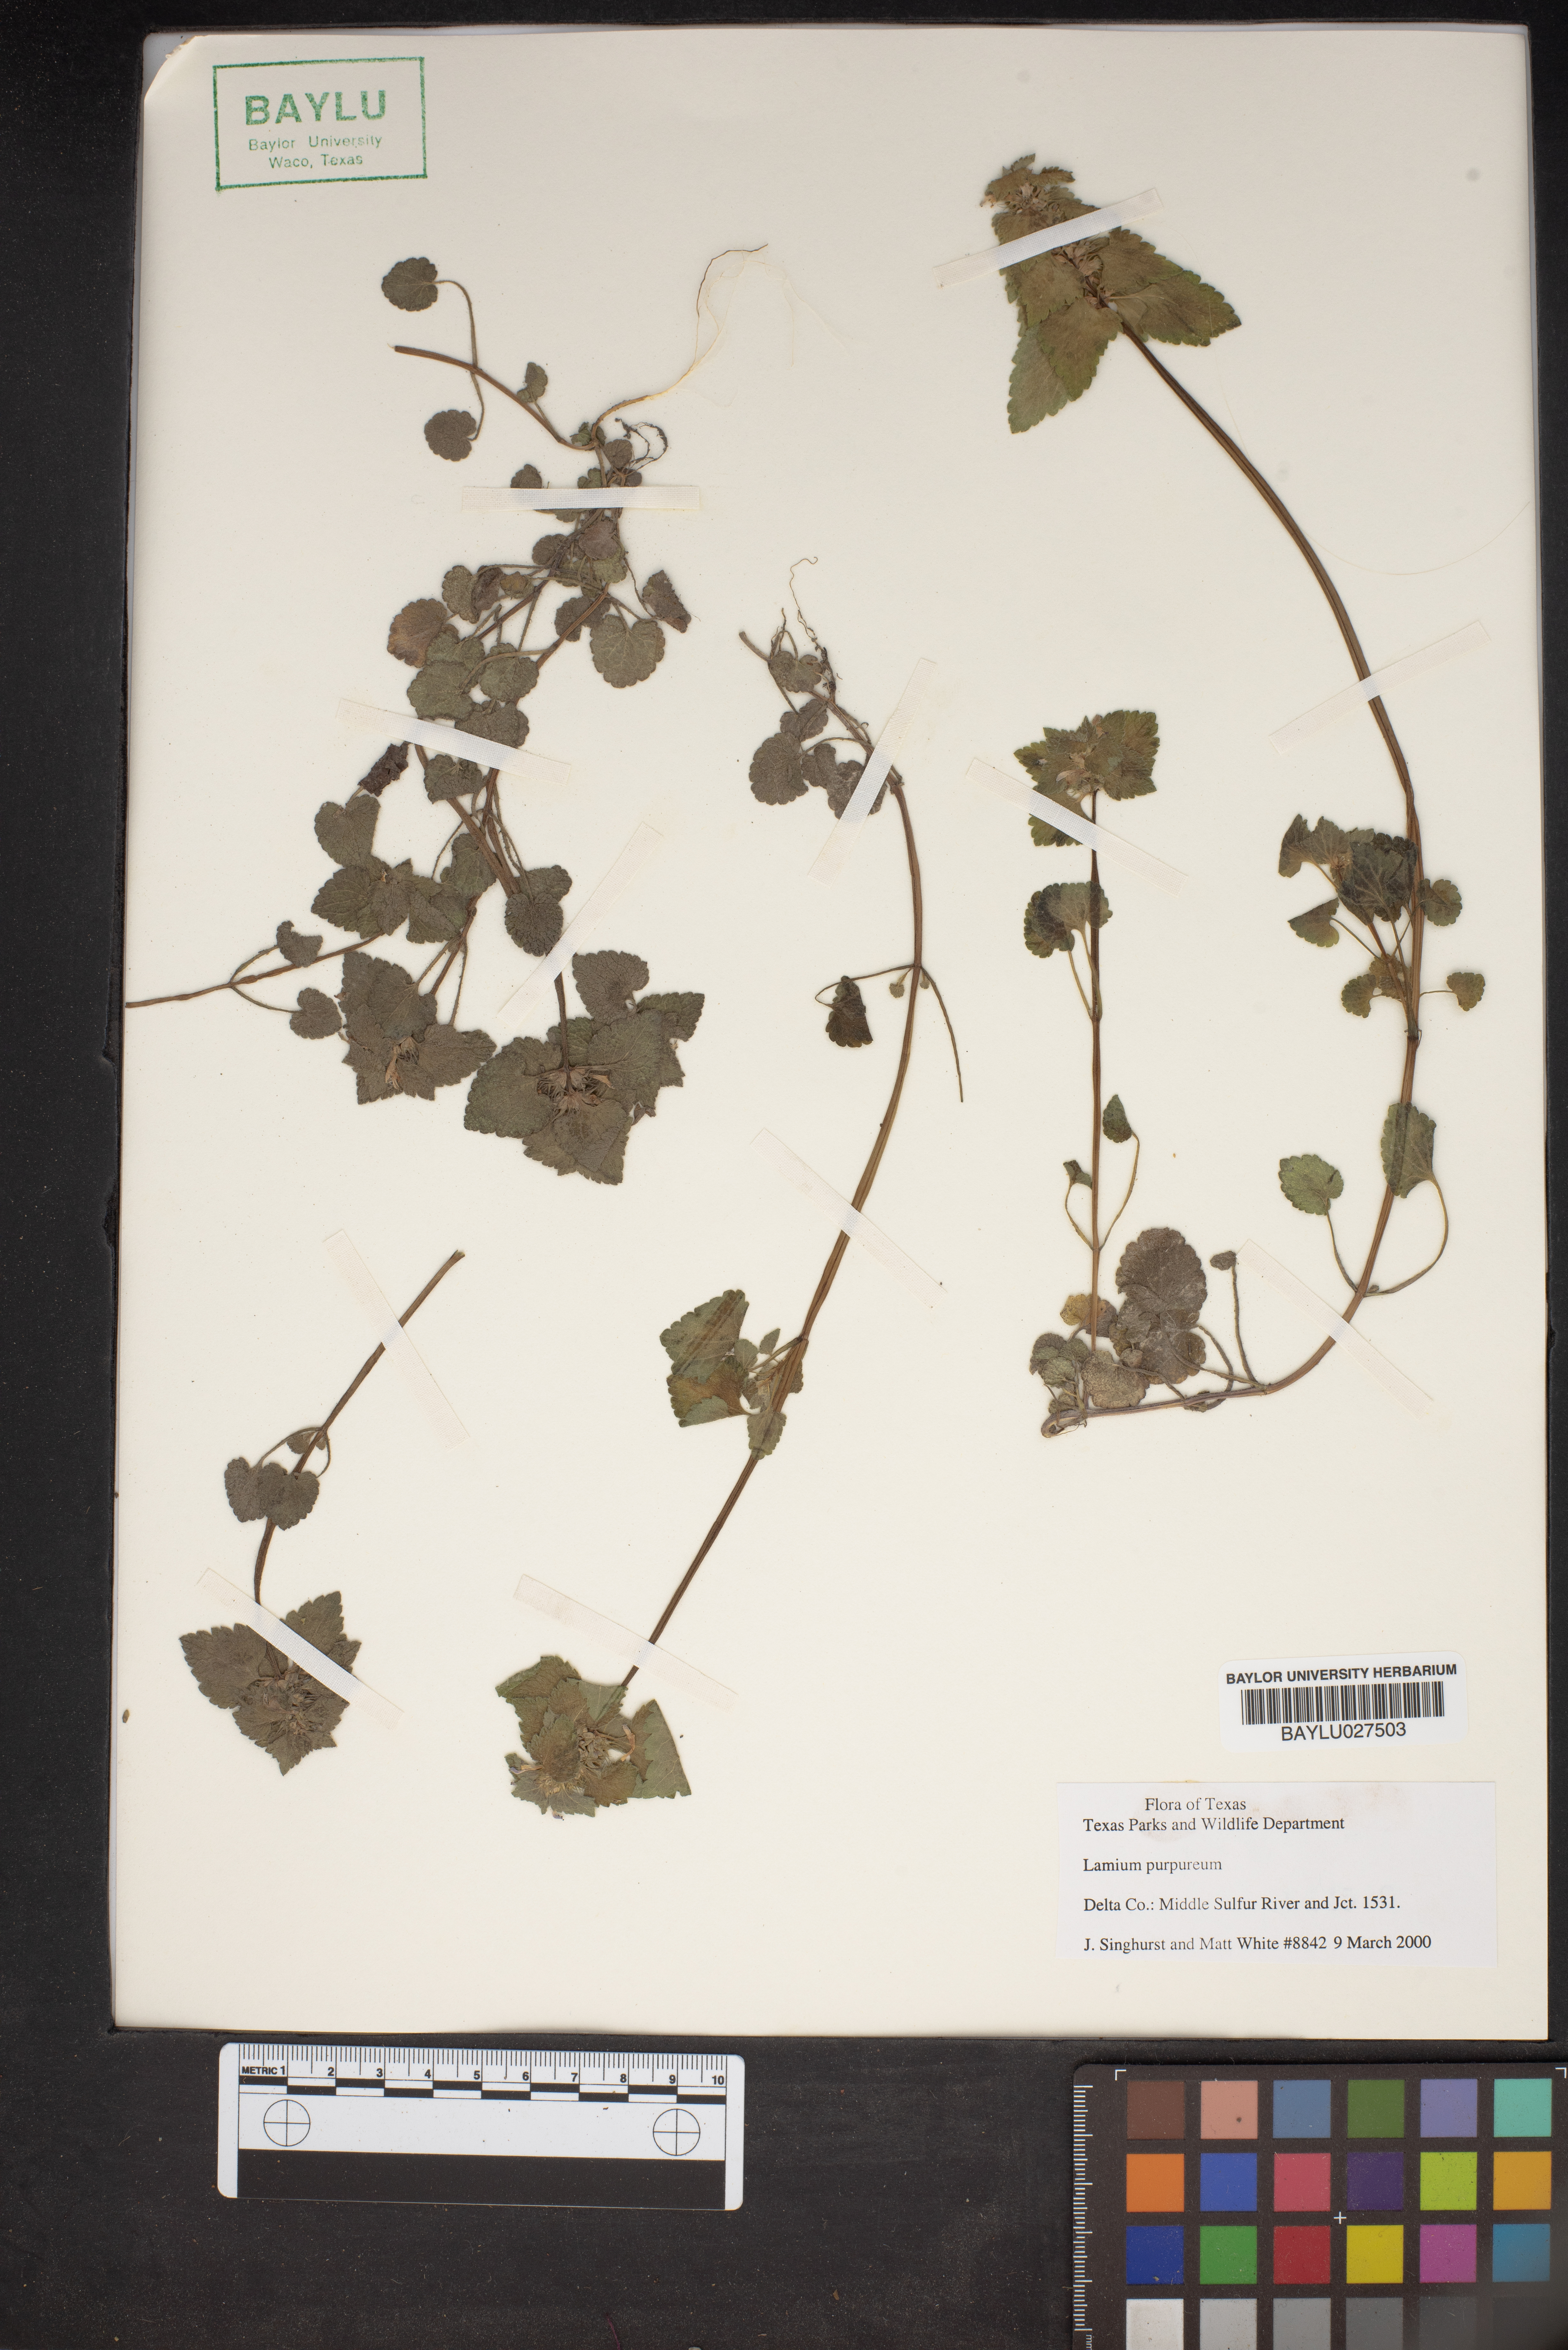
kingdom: Plantae
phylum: Tracheophyta
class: Magnoliopsida
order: Lamiales
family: Lamiaceae
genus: Lamium
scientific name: Lamium purpureum
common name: Red dead-nettle
